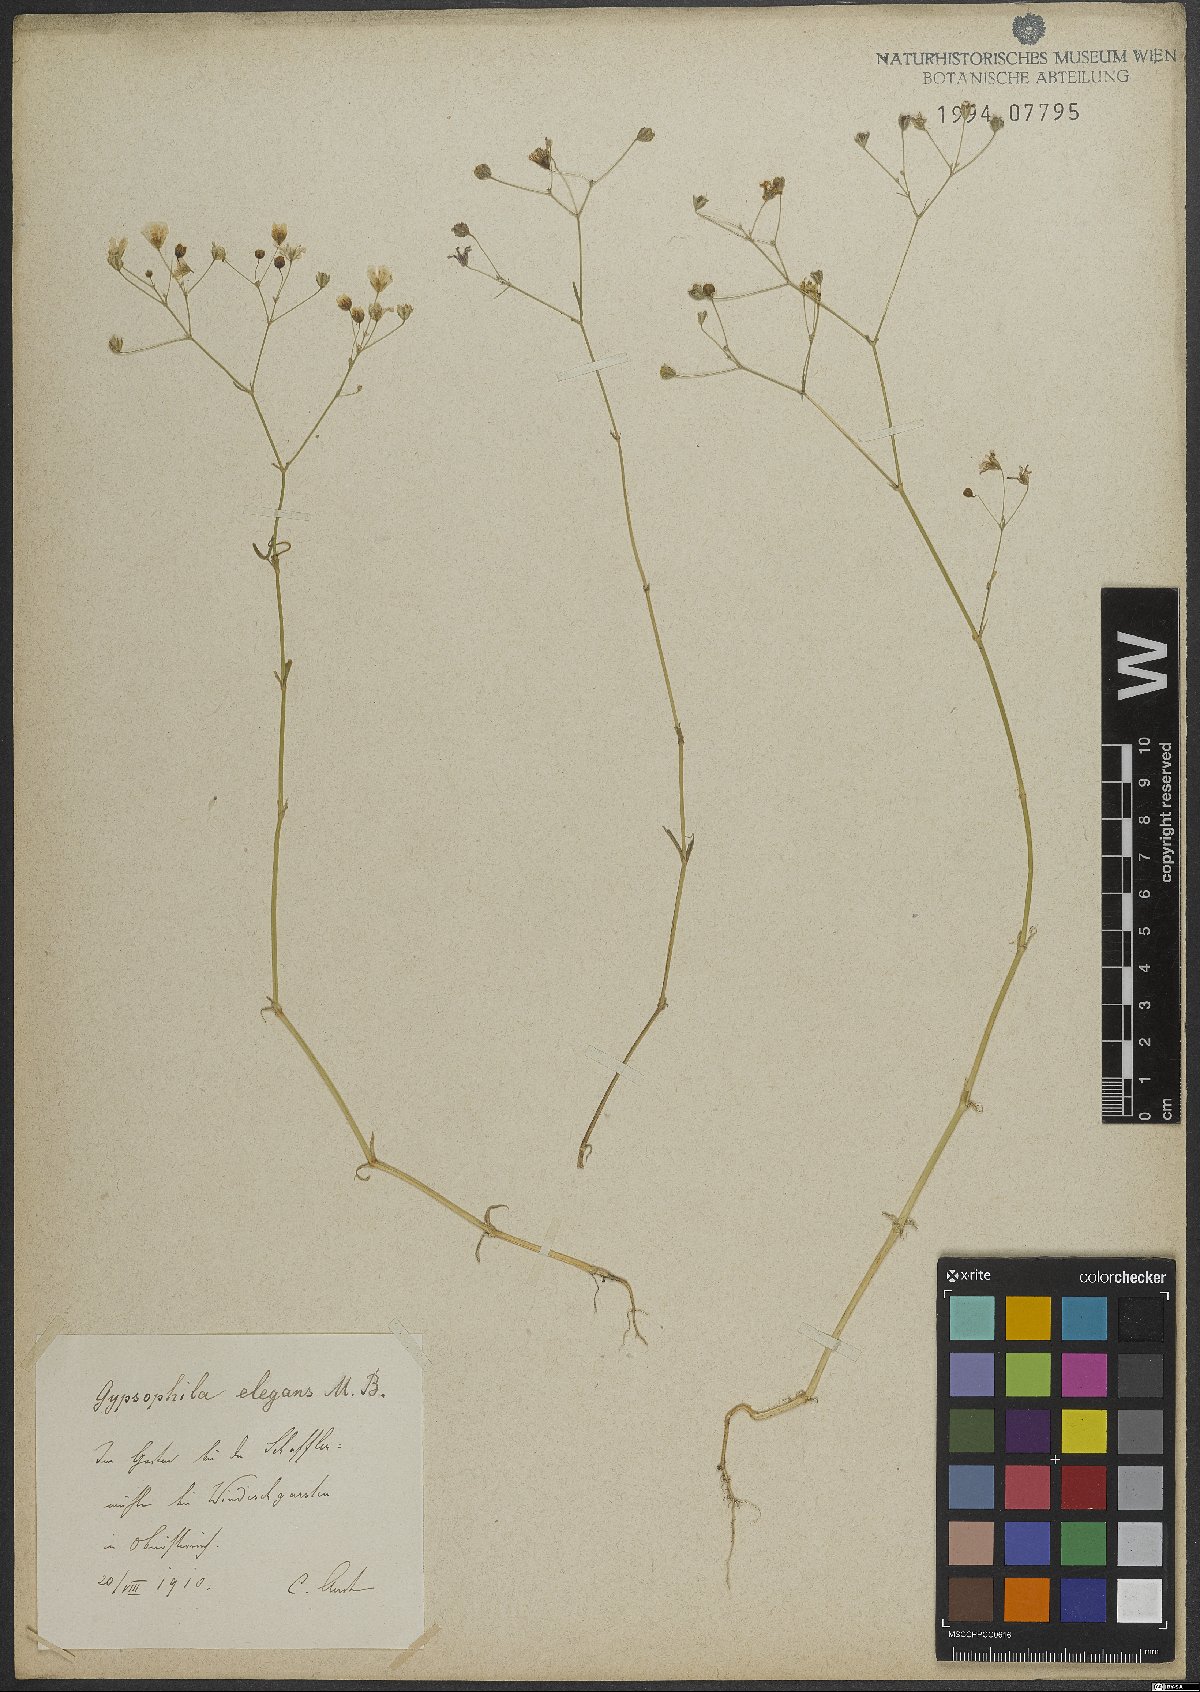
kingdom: Plantae
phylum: Tracheophyta
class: Magnoliopsida
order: Caryophyllales
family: Caryophyllaceae
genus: Gypsophila
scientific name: Gypsophila elegans
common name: Showy baby's-breath
